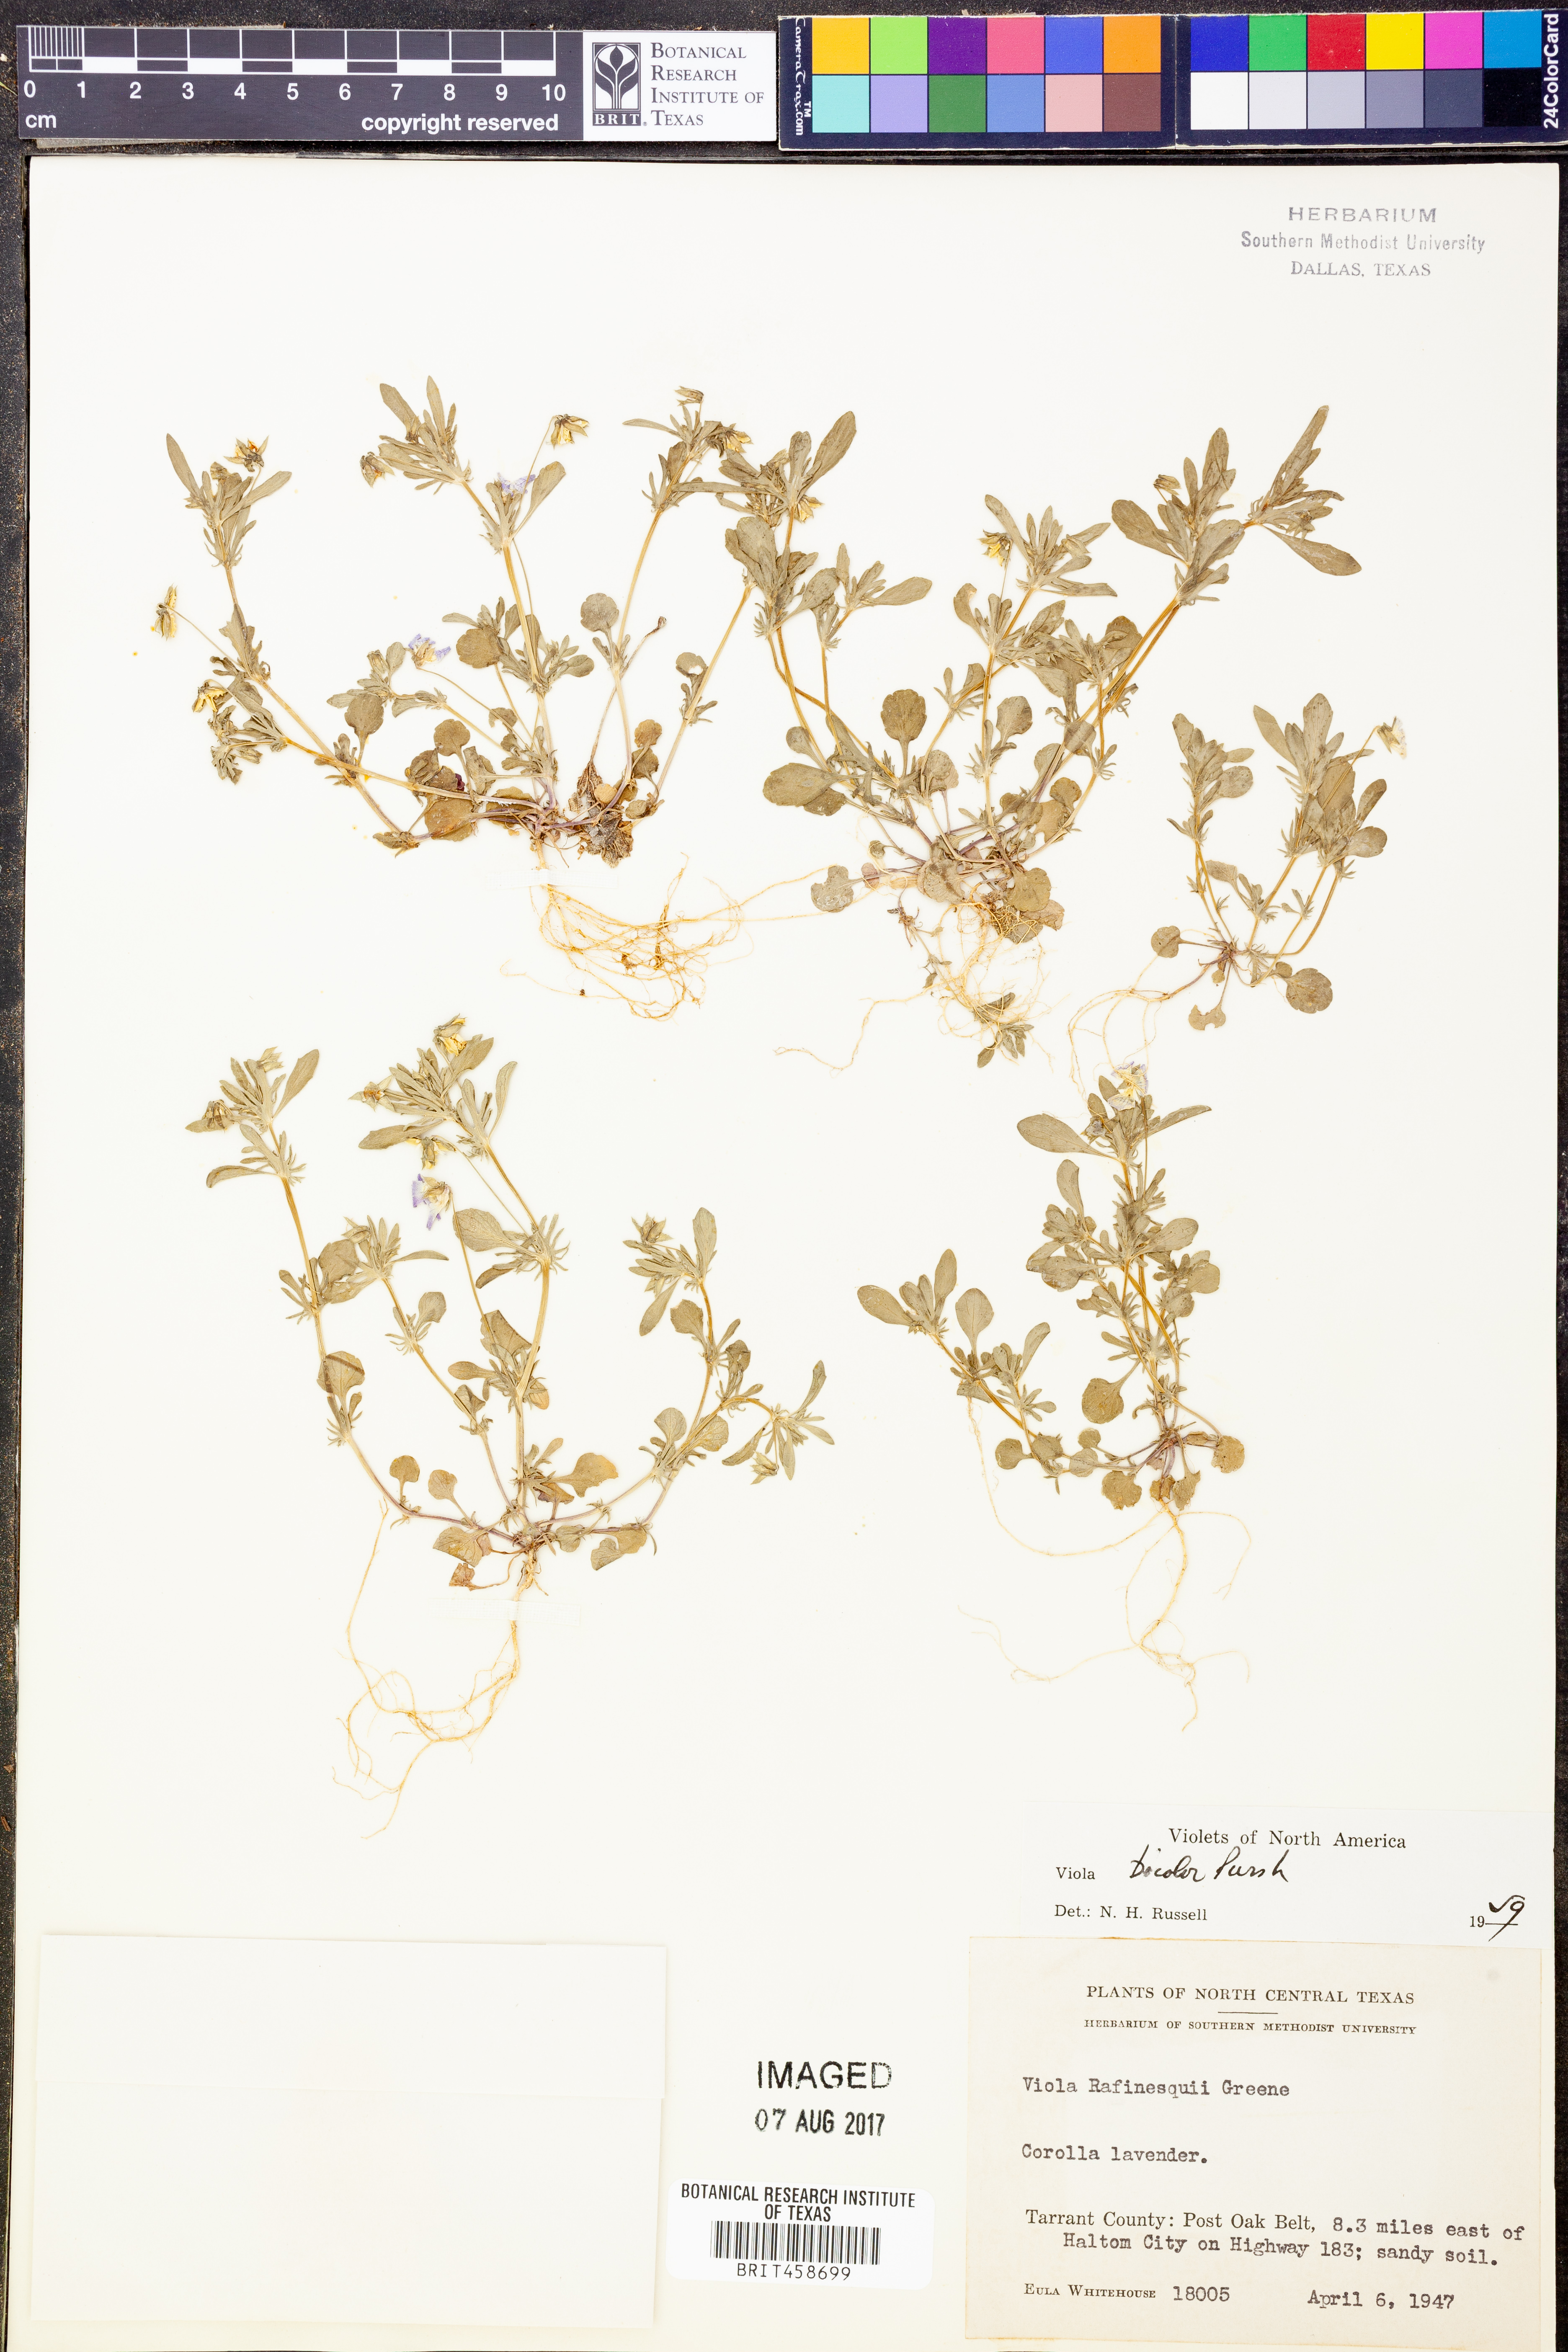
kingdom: Plantae
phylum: Tracheophyta
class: Magnoliopsida
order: Malpighiales
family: Violaceae
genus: Viola
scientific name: Viola rafinesquei
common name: American field pansy
